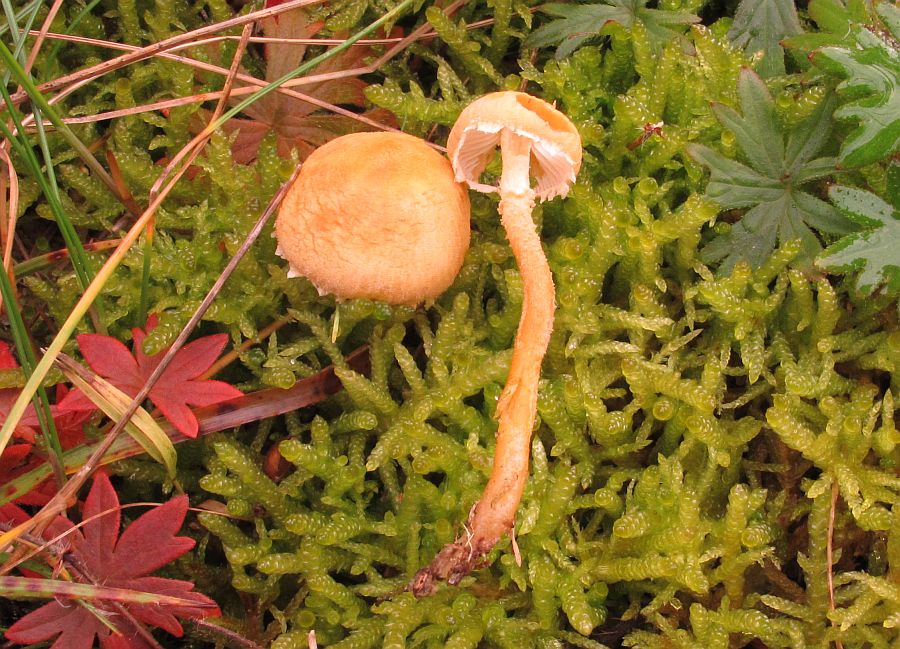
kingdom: Fungi
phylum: Basidiomycota
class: Agaricomycetes
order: Agaricales
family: Tricholomataceae
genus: Cystoderma
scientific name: Cystoderma amianthinum
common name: okkergul grynhat
